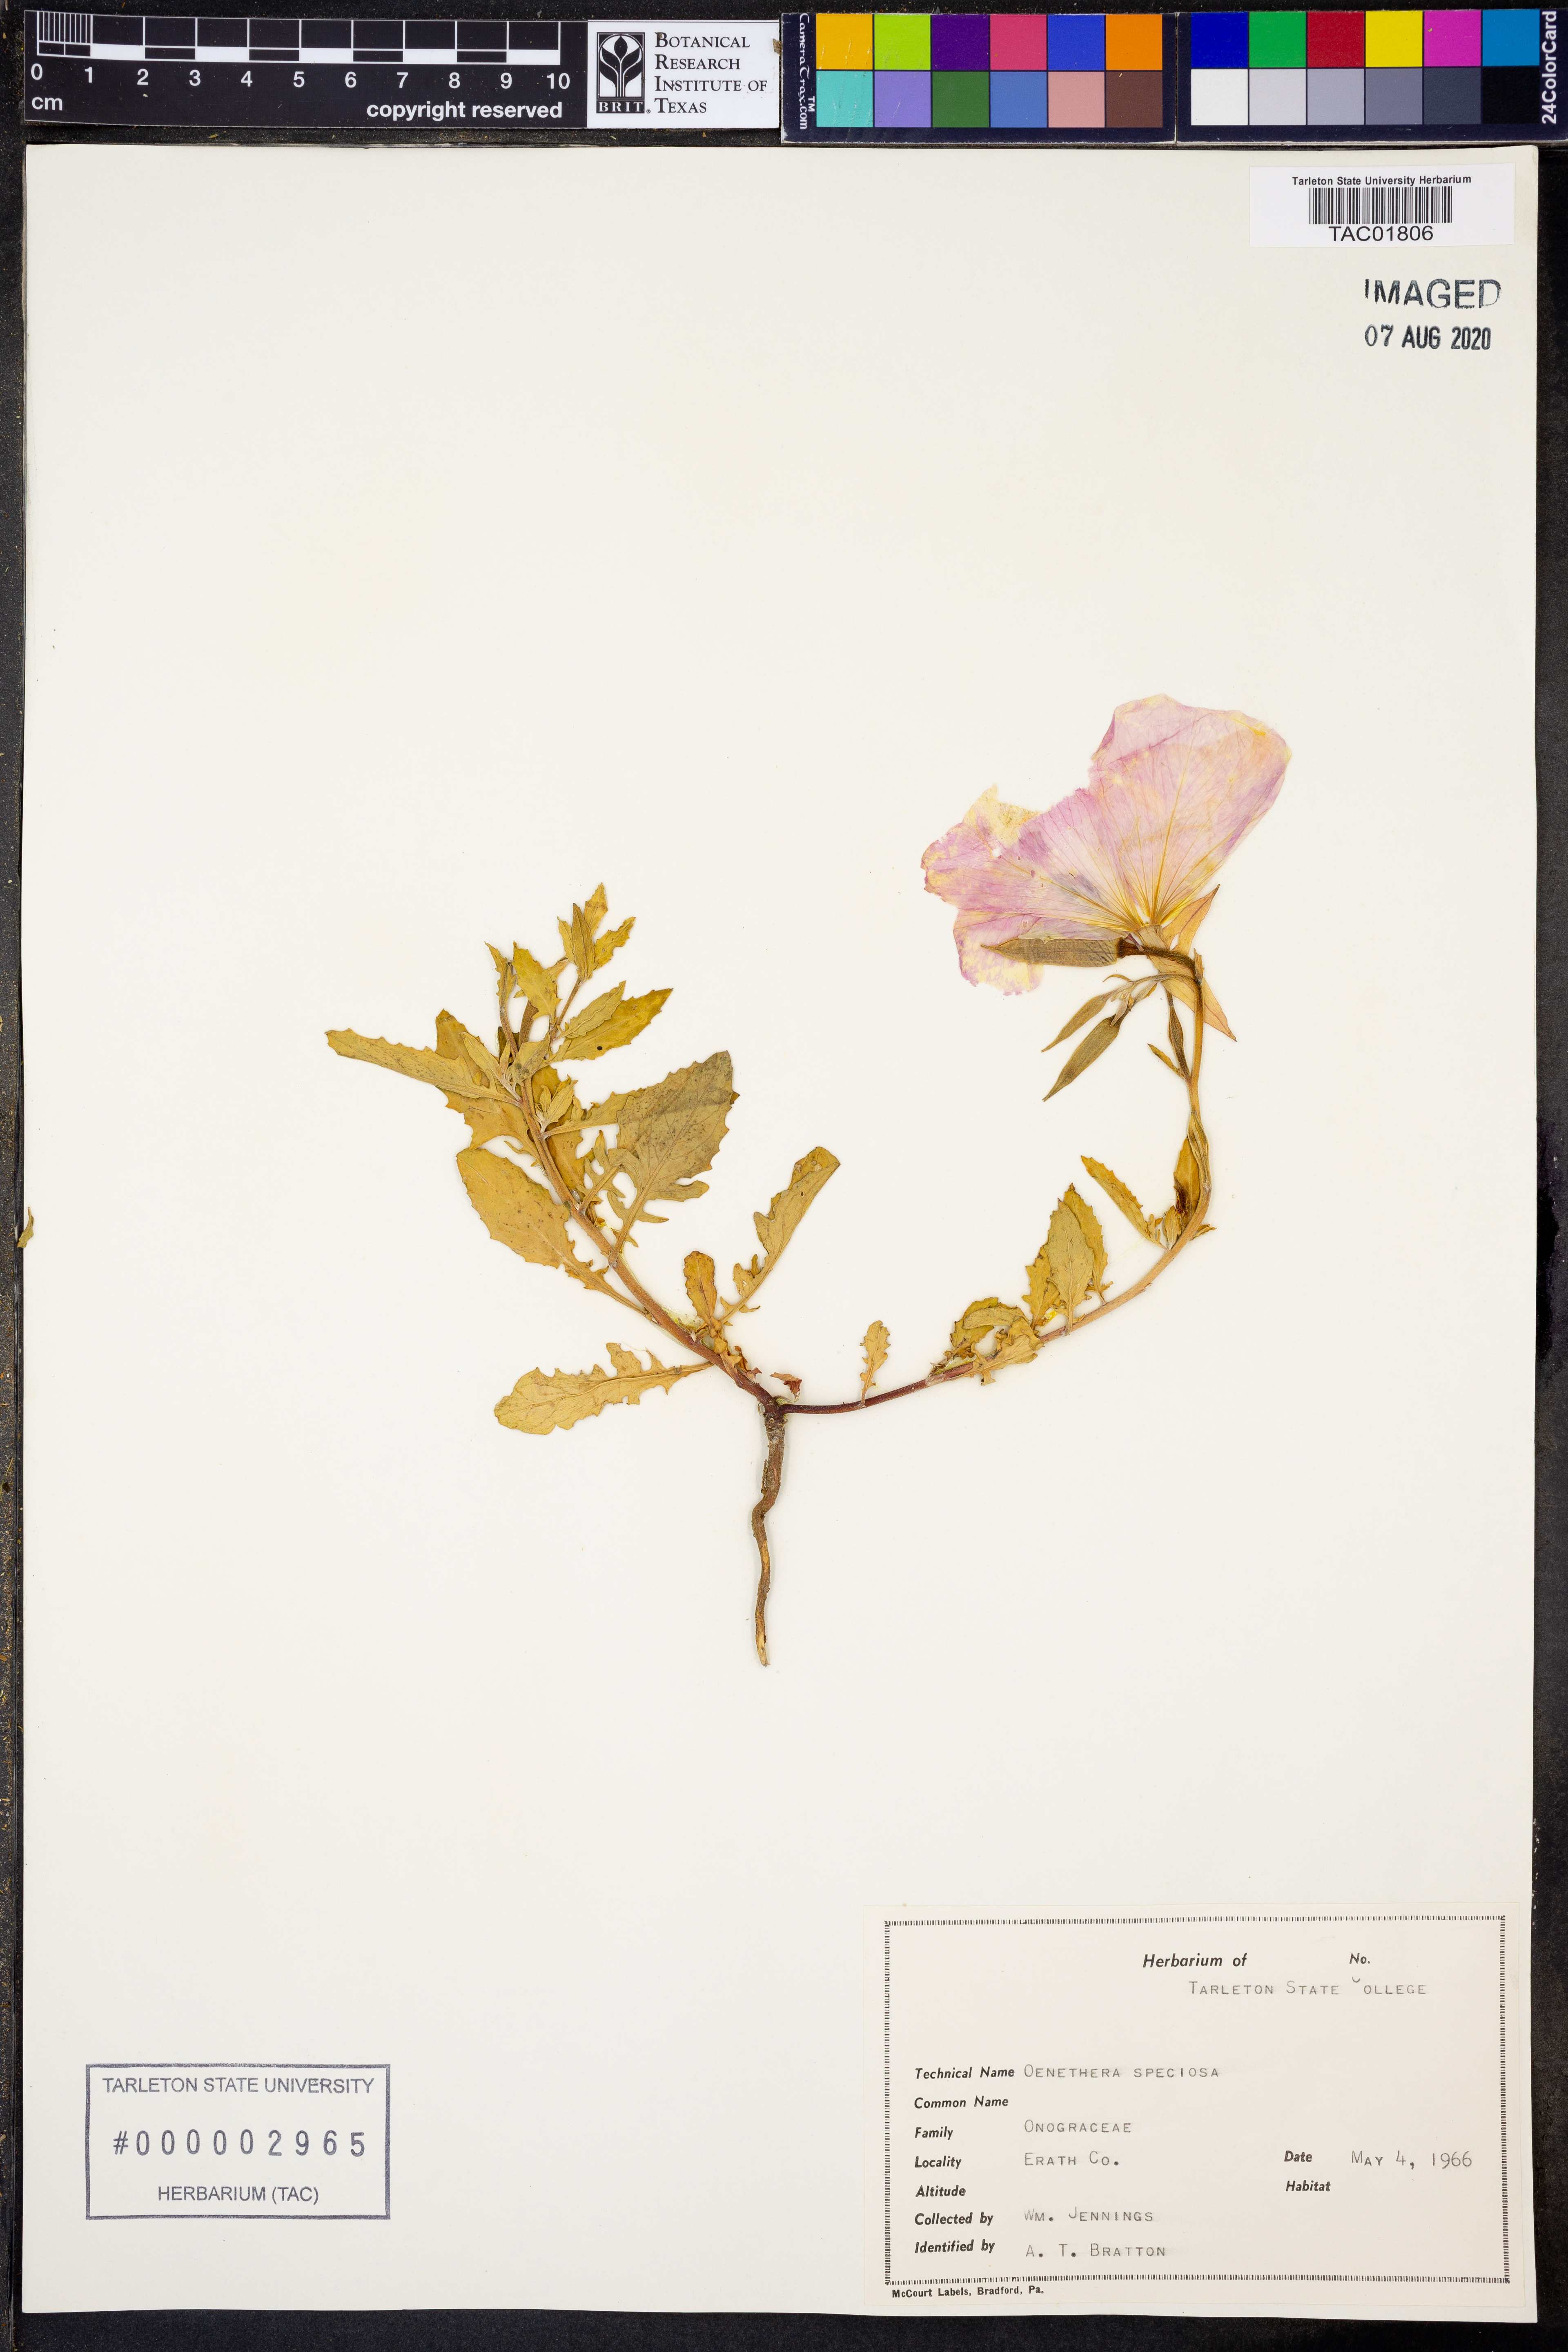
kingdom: Plantae
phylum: Tracheophyta
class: Magnoliopsida
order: Myrtales
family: Onagraceae
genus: Oenothera
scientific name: Oenothera speciosa
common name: White evening-primrose
